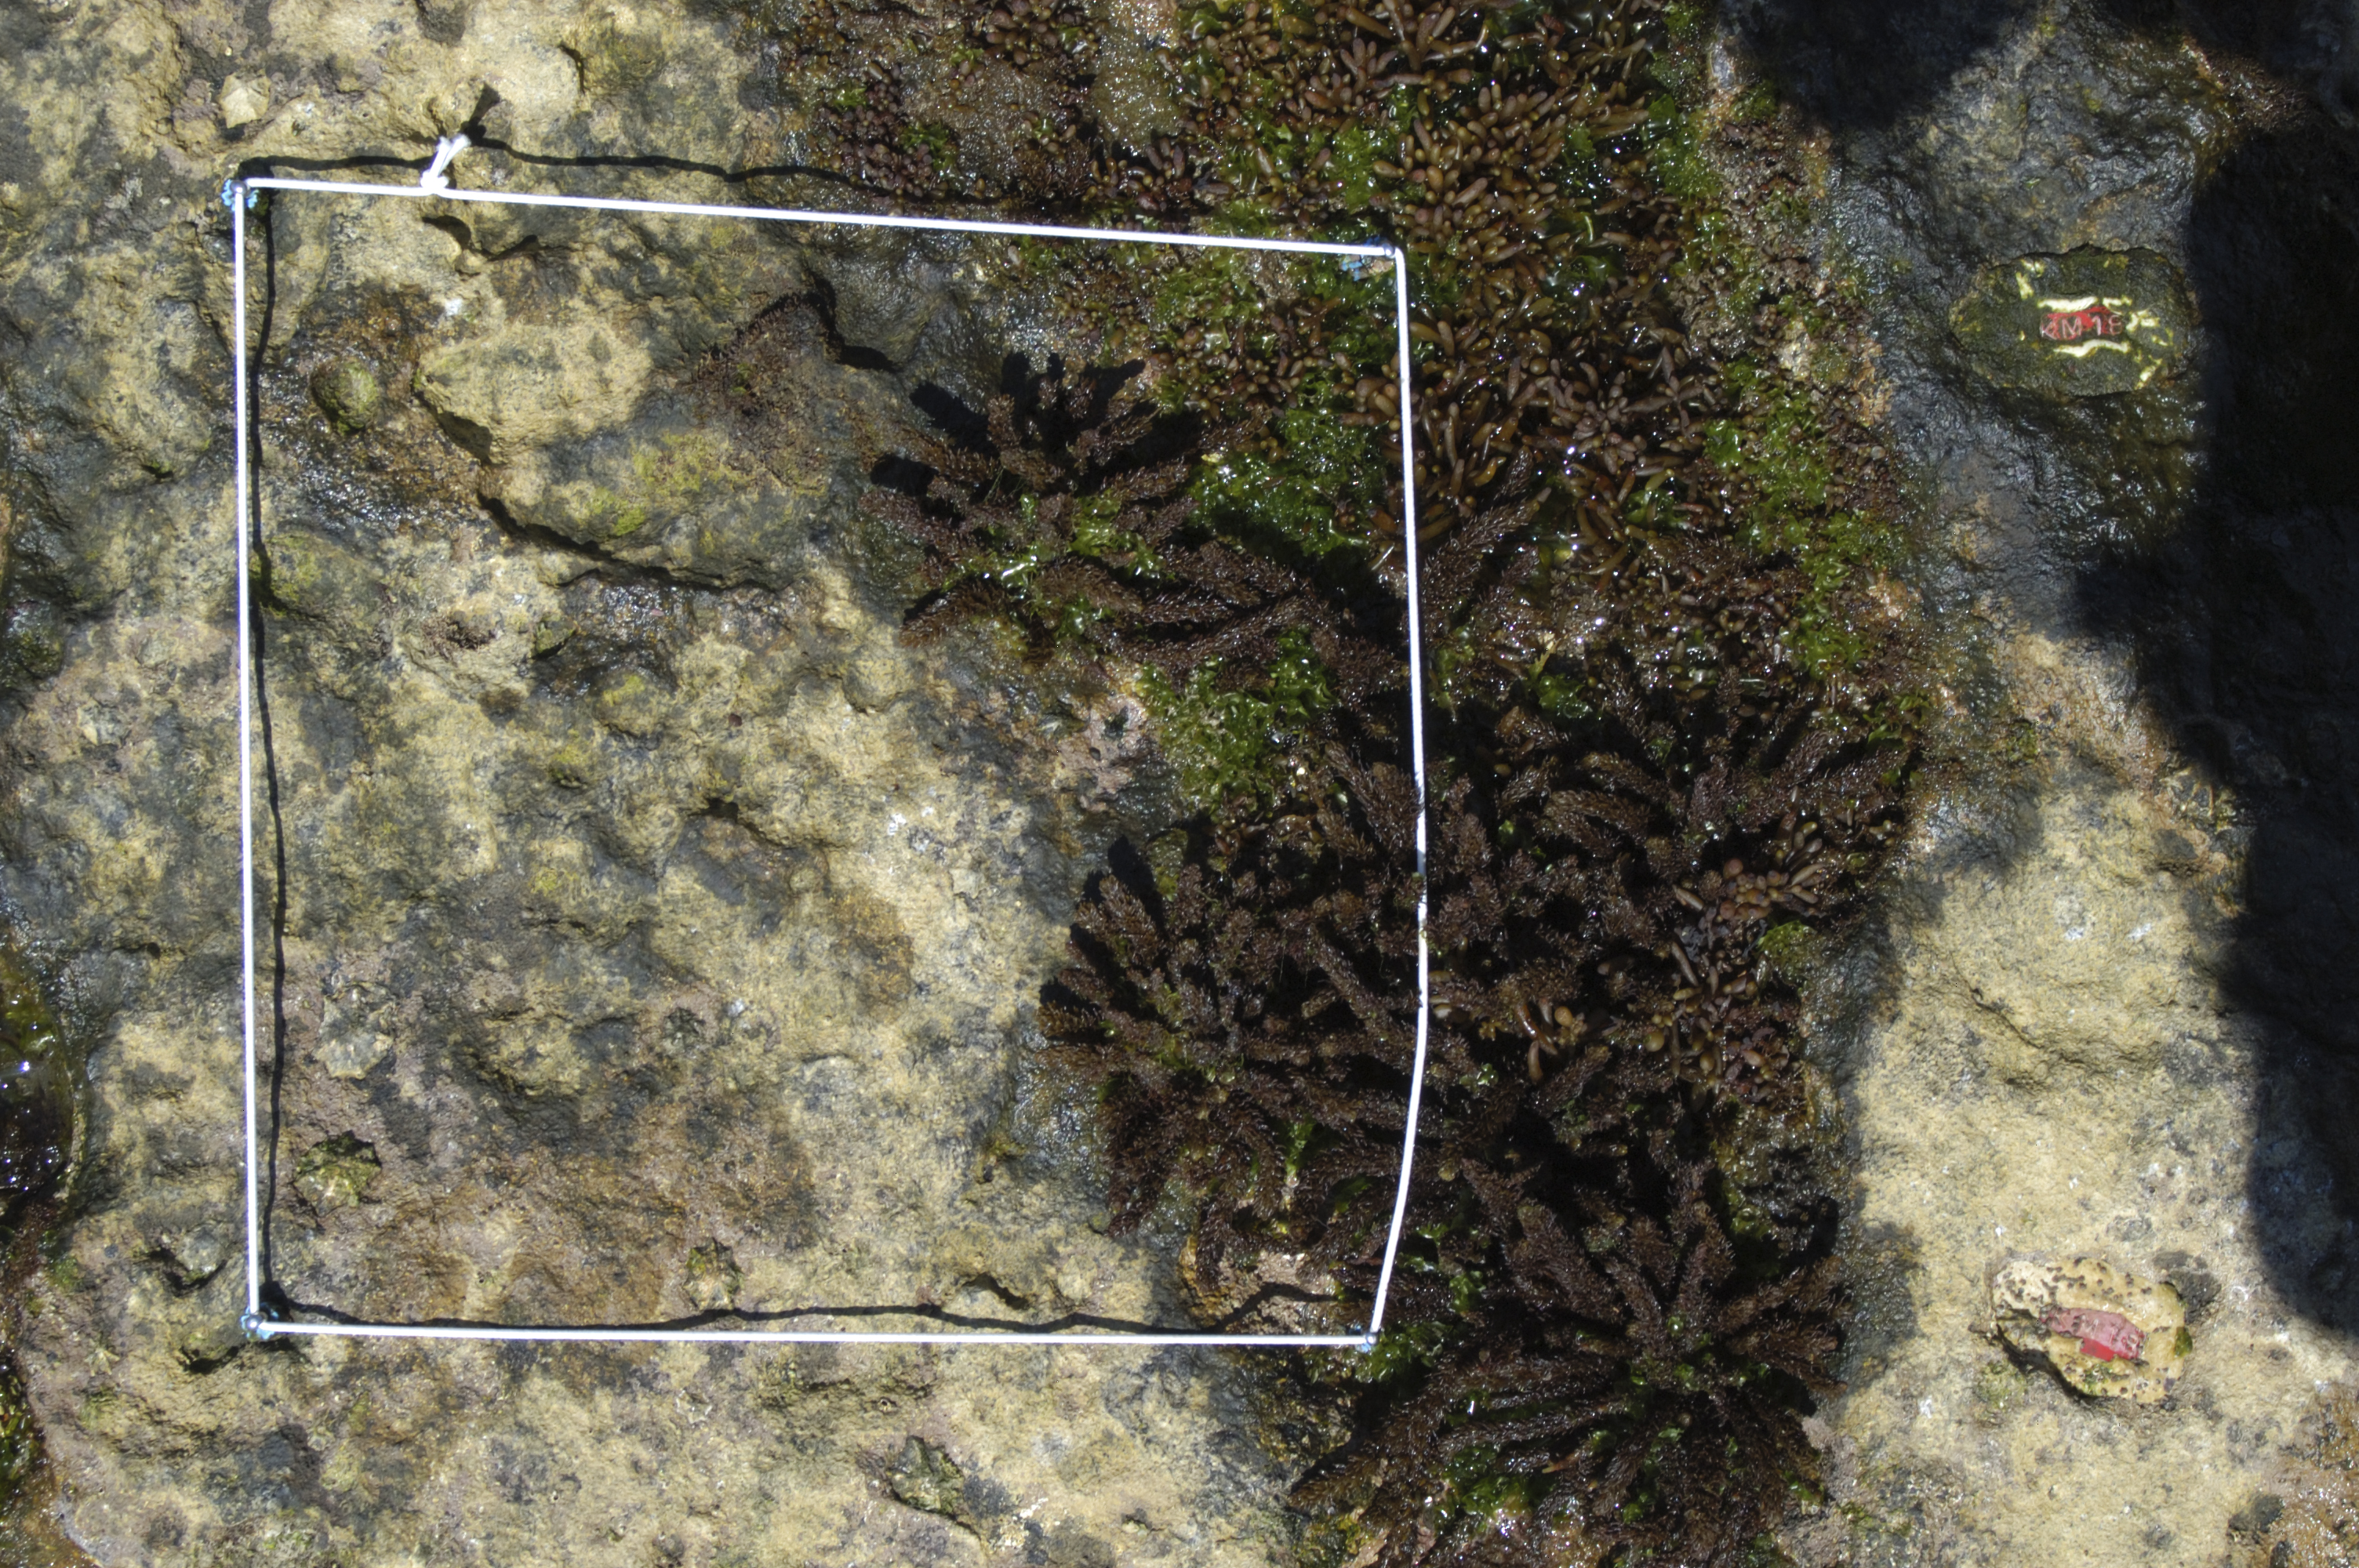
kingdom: Chromista
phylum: Ochrophyta
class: Phaeophyceae
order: Fucales
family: Sargassaceae
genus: Sargassum
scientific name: Sargassum fusiforme
